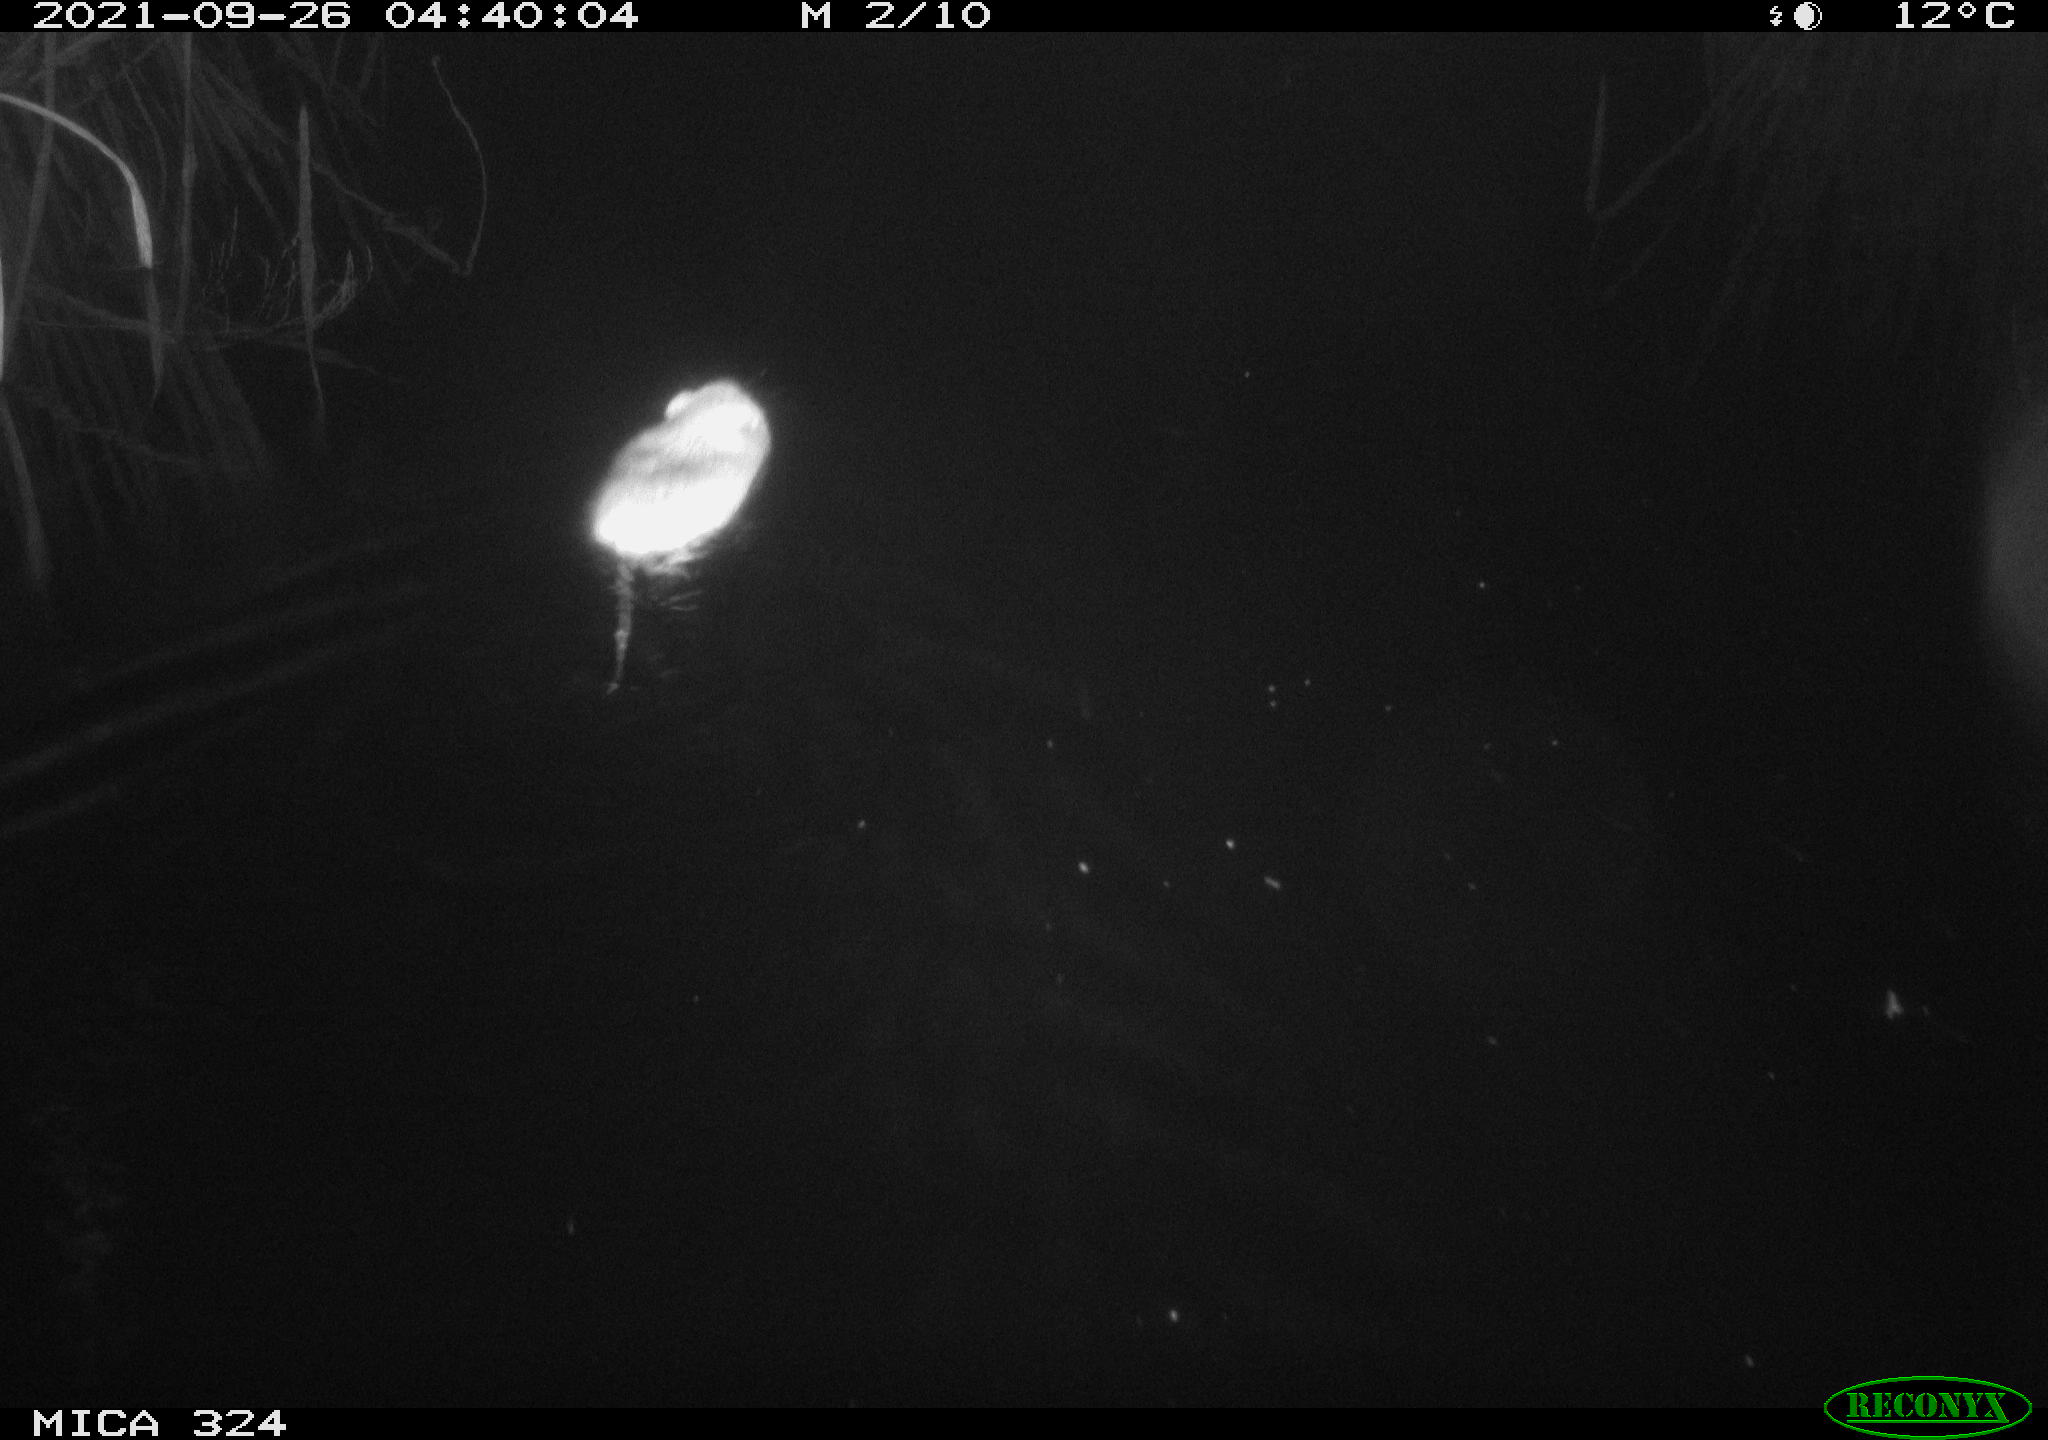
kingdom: Animalia
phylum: Chordata
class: Mammalia
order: Rodentia
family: Cricetidae
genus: Ondatra
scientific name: Ondatra zibethicus
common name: Muskrat
